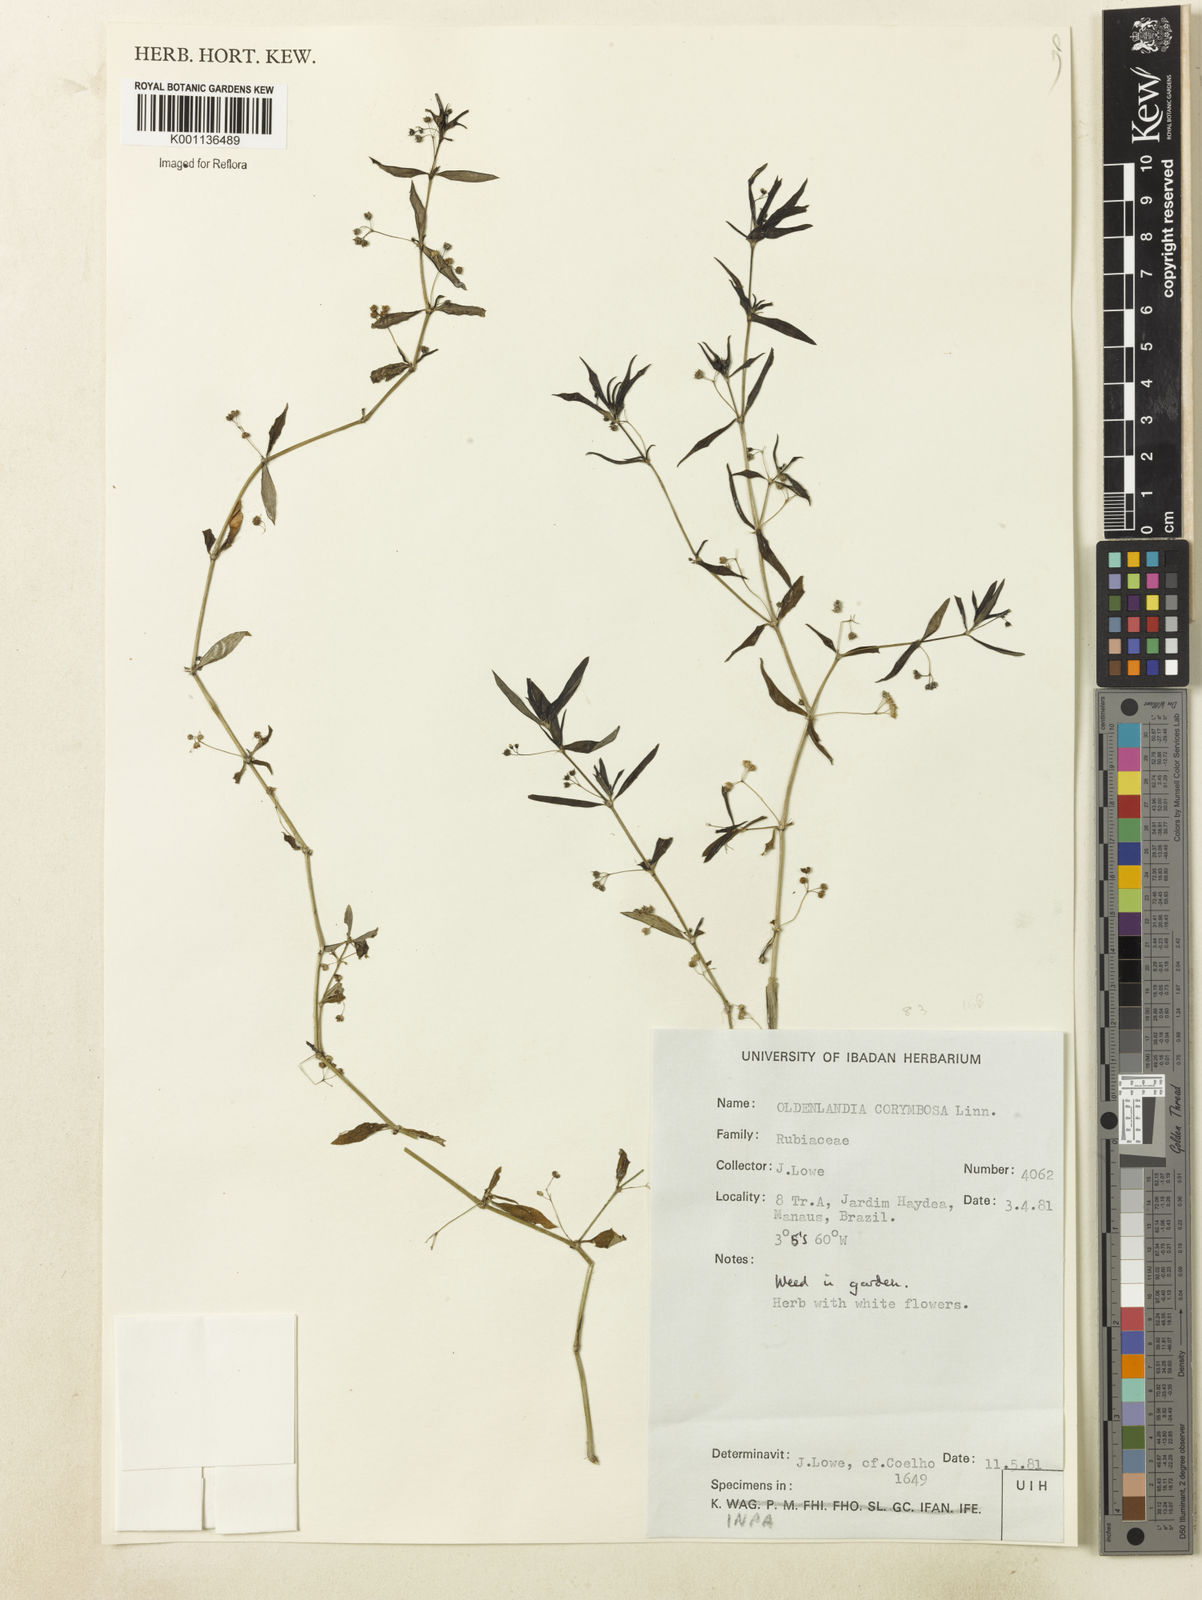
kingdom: Plantae
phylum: Tracheophyta
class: Magnoliopsida
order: Gentianales
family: Rubiaceae
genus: Oldenlandia
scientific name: Oldenlandia corymbosa
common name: Flat-top mille graines
